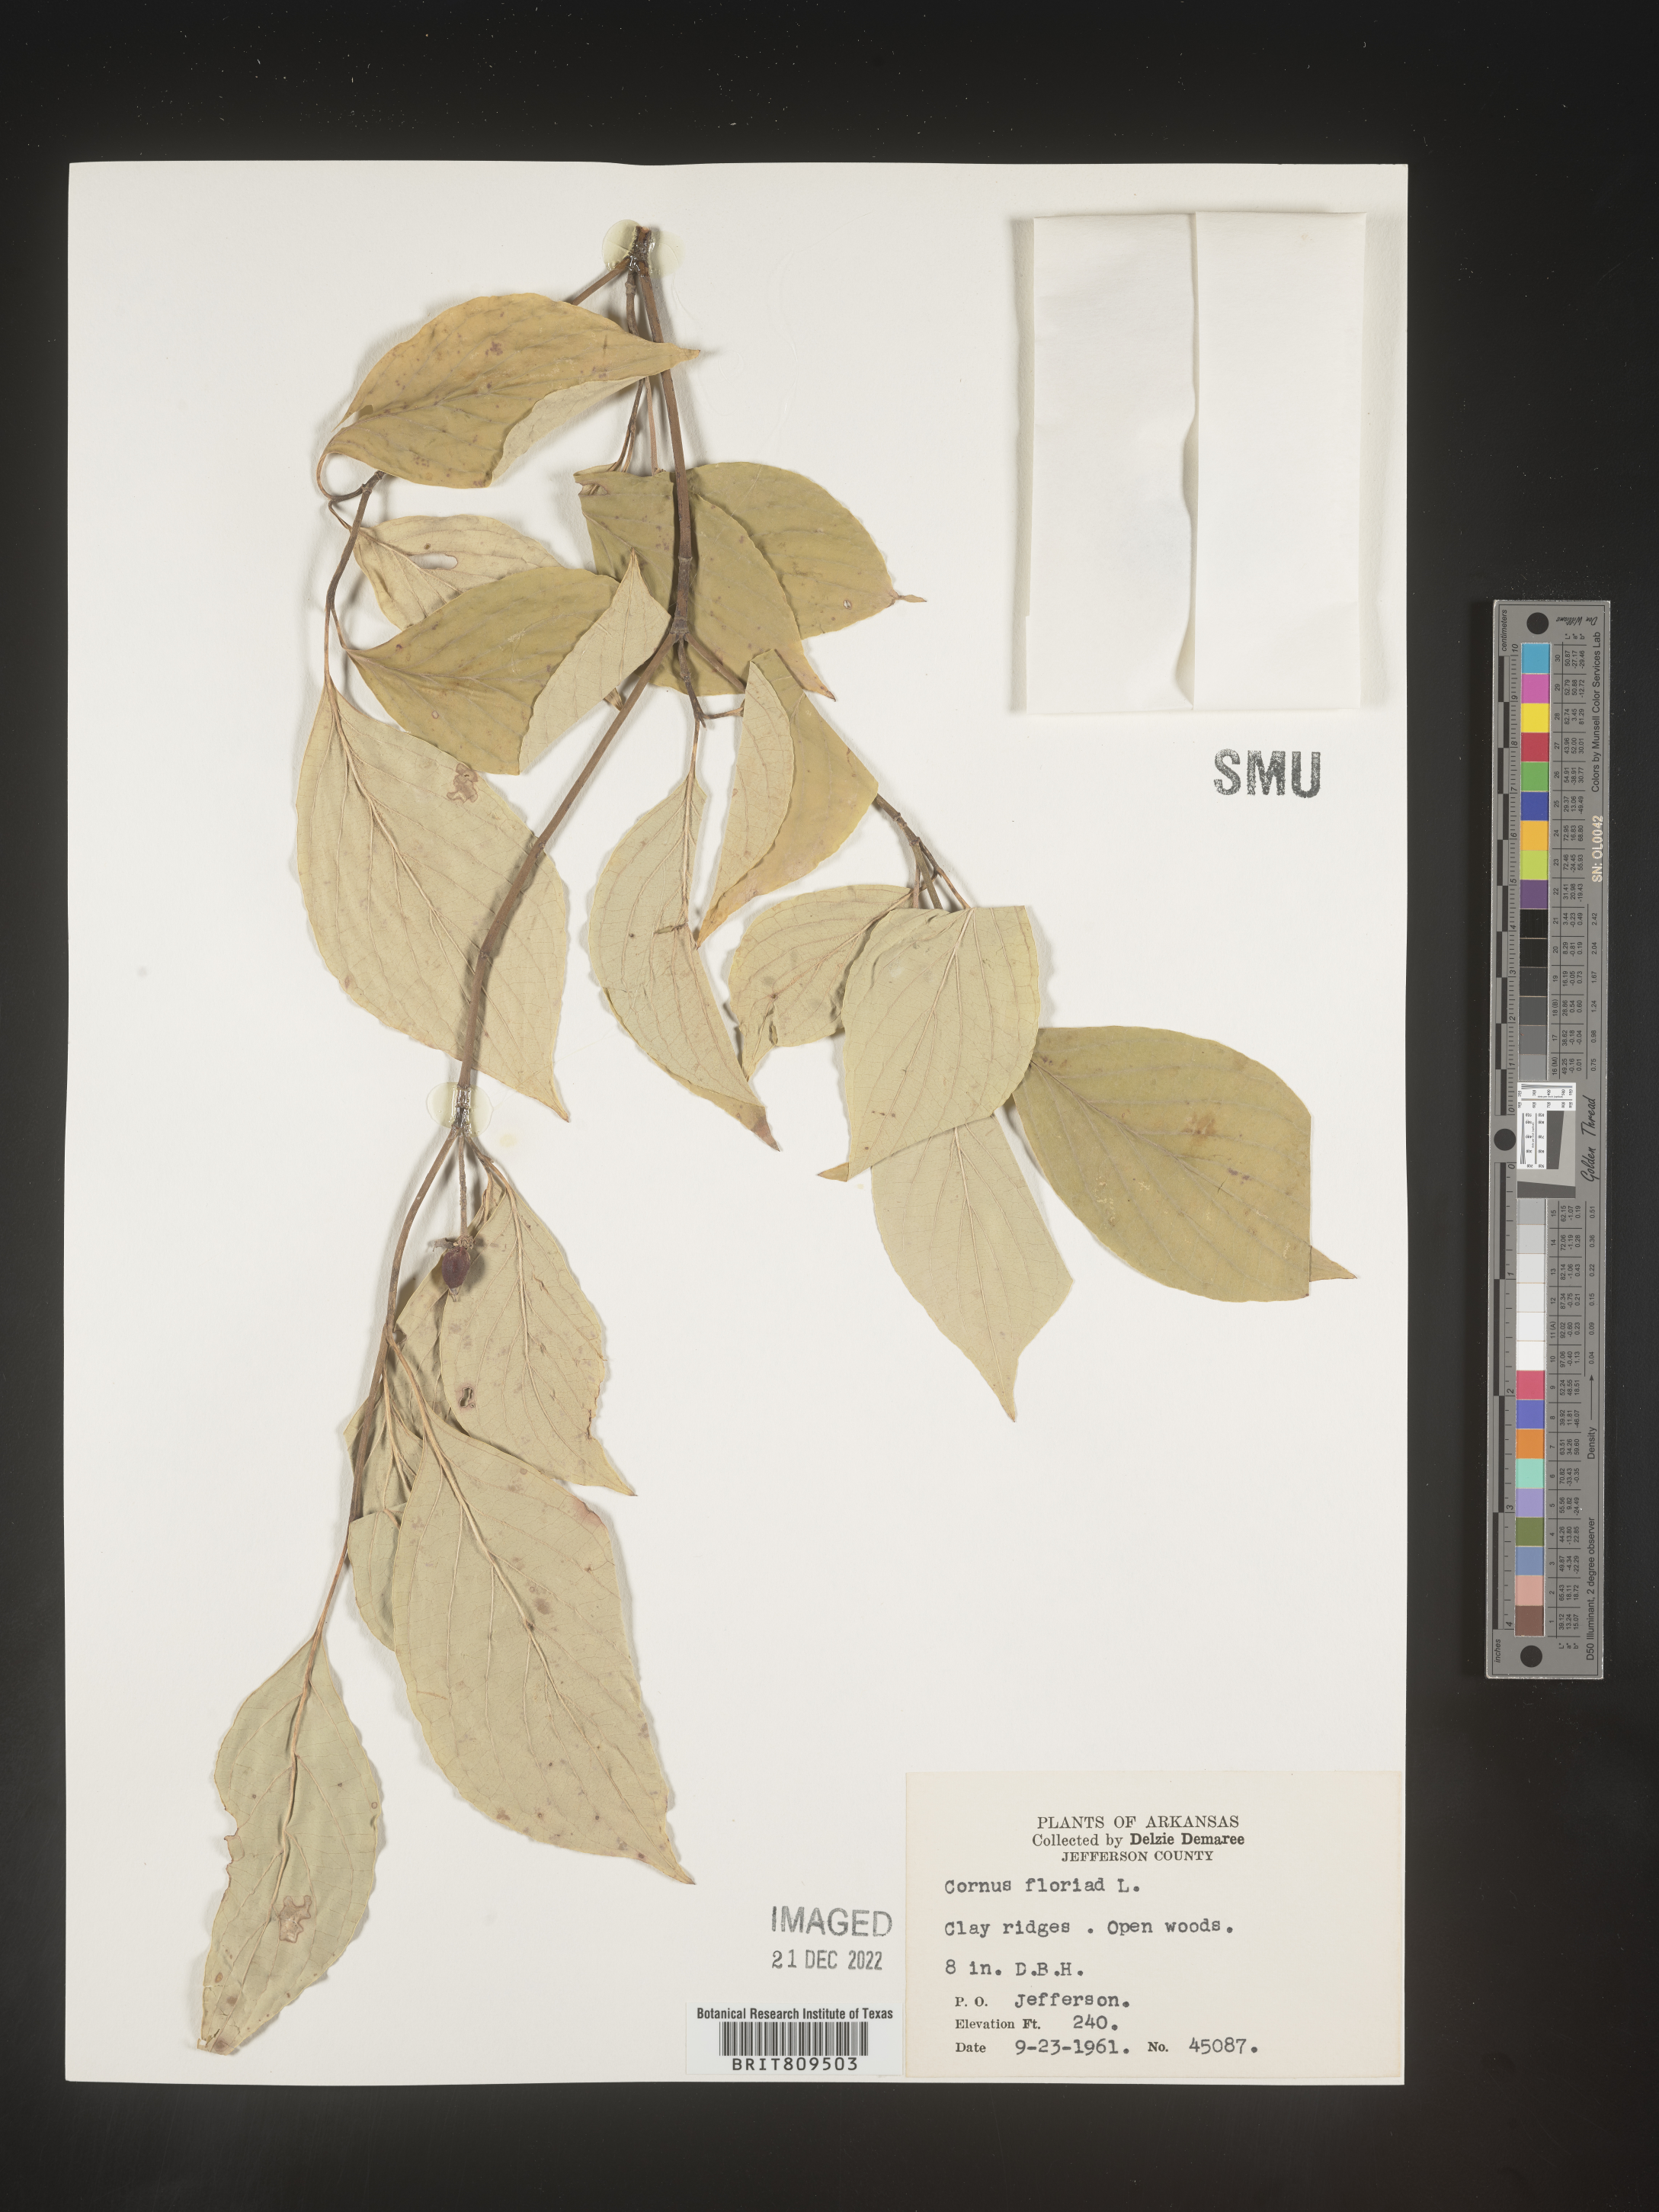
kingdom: Plantae
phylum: Tracheophyta
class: Magnoliopsida
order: Cornales
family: Cornaceae
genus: Cornus
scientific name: Cornus florida
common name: Flowering dogwood
